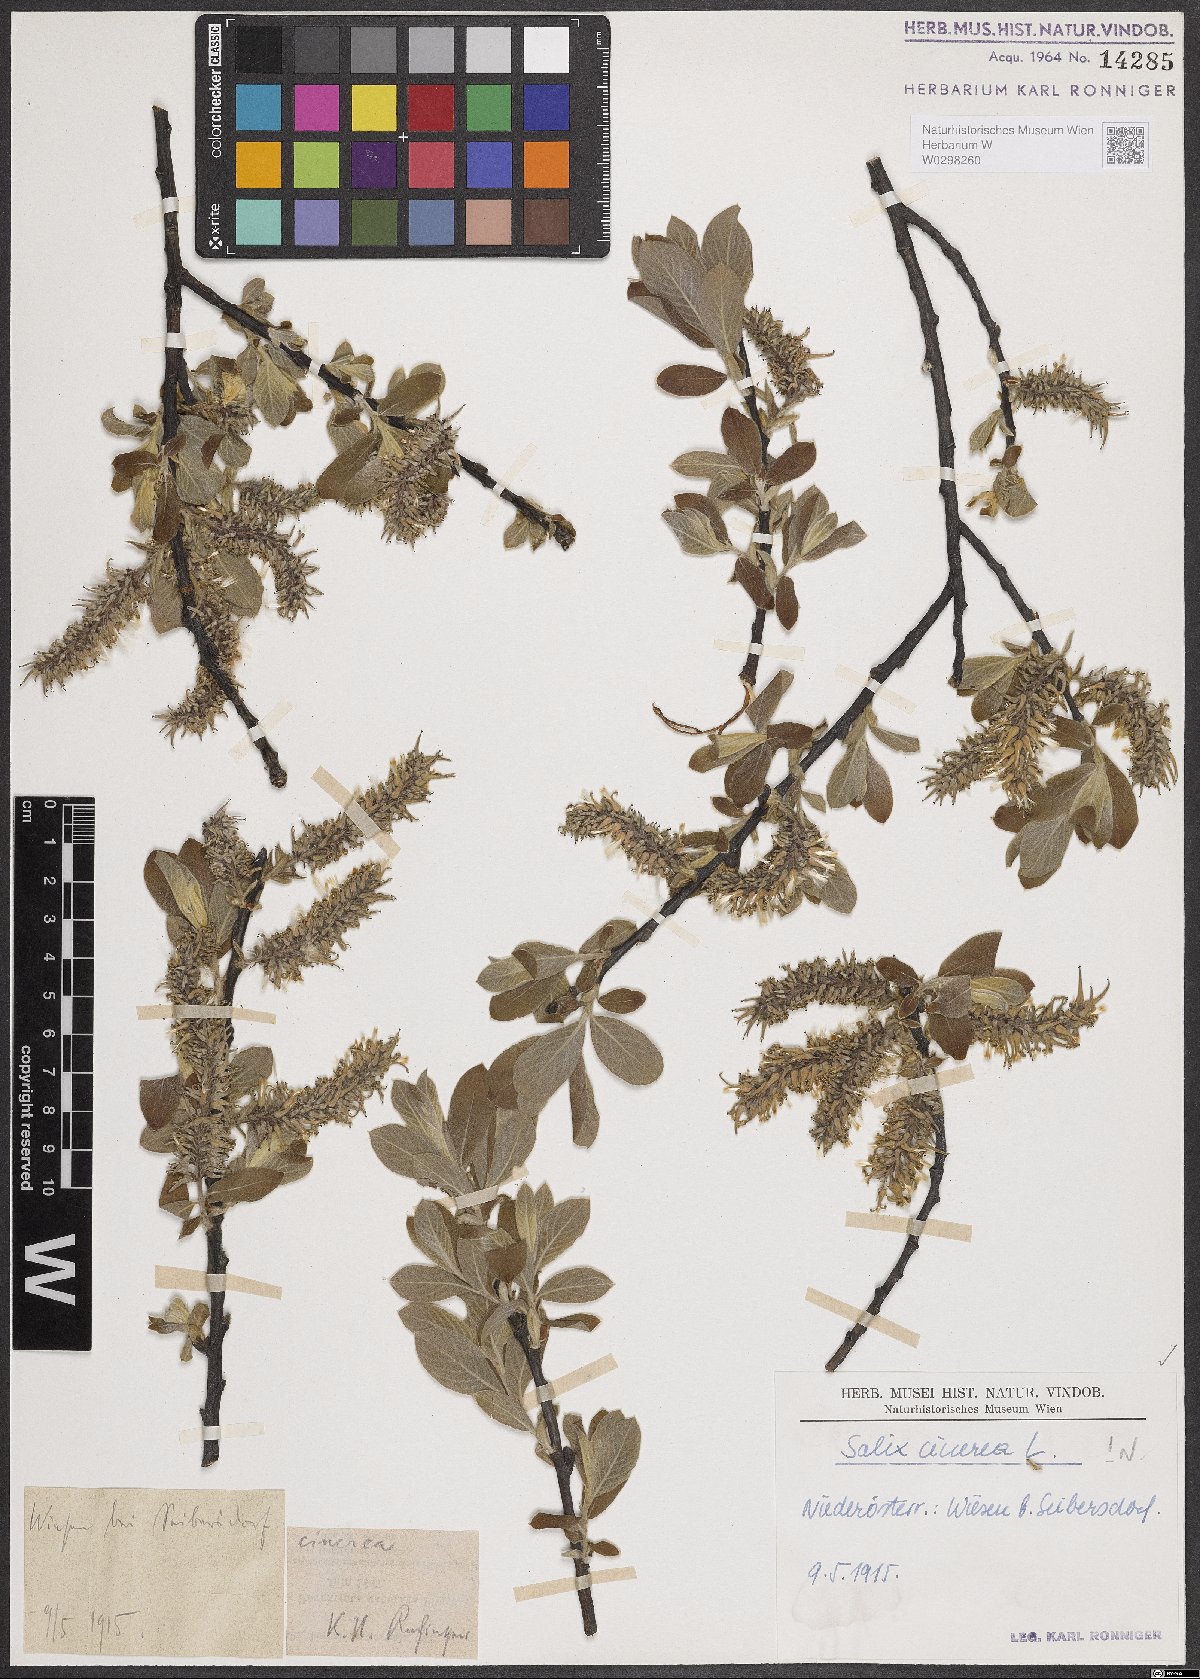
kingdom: Plantae
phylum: Tracheophyta
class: Magnoliopsida
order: Malpighiales
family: Salicaceae
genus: Salix
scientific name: Salix cinerea
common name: Common sallow
